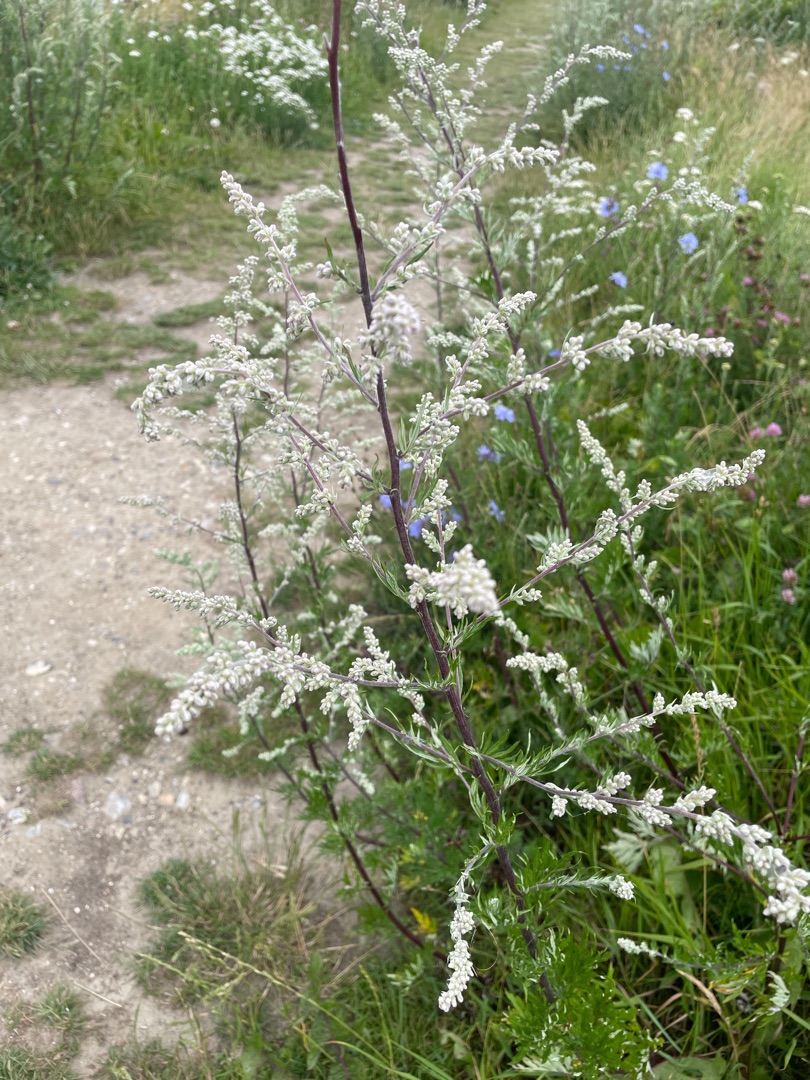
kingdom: Plantae
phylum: Tracheophyta
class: Magnoliopsida
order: Asterales
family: Asteraceae
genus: Artemisia
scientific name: Artemisia vulgaris
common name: Grå-bynke
